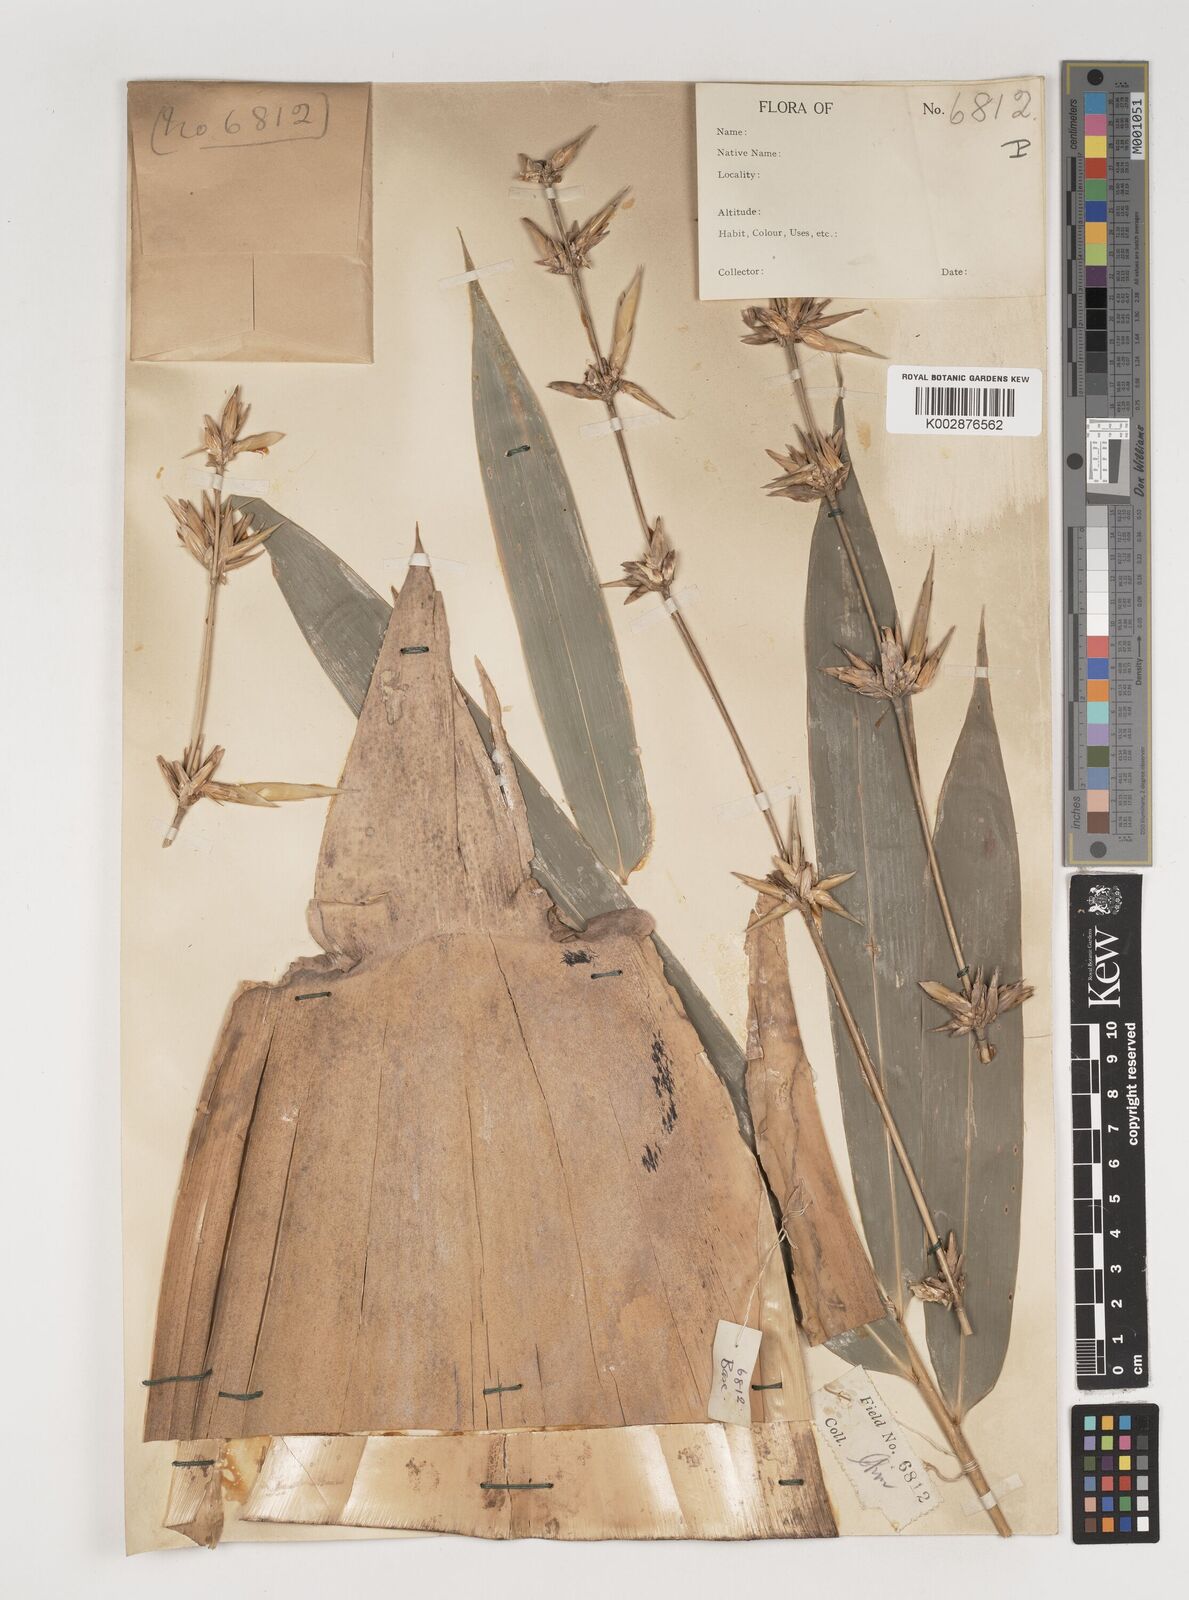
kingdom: Plantae
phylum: Tracheophyta
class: Liliopsida
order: Poales
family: Poaceae
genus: Bambusa
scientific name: Bambusa longispiculata
